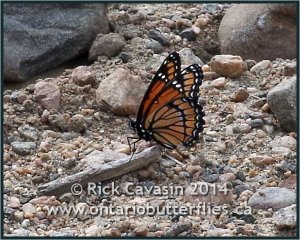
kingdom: Animalia
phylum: Arthropoda
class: Insecta
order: Lepidoptera
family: Nymphalidae
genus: Limenitis
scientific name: Limenitis archippus
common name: Viceroy
